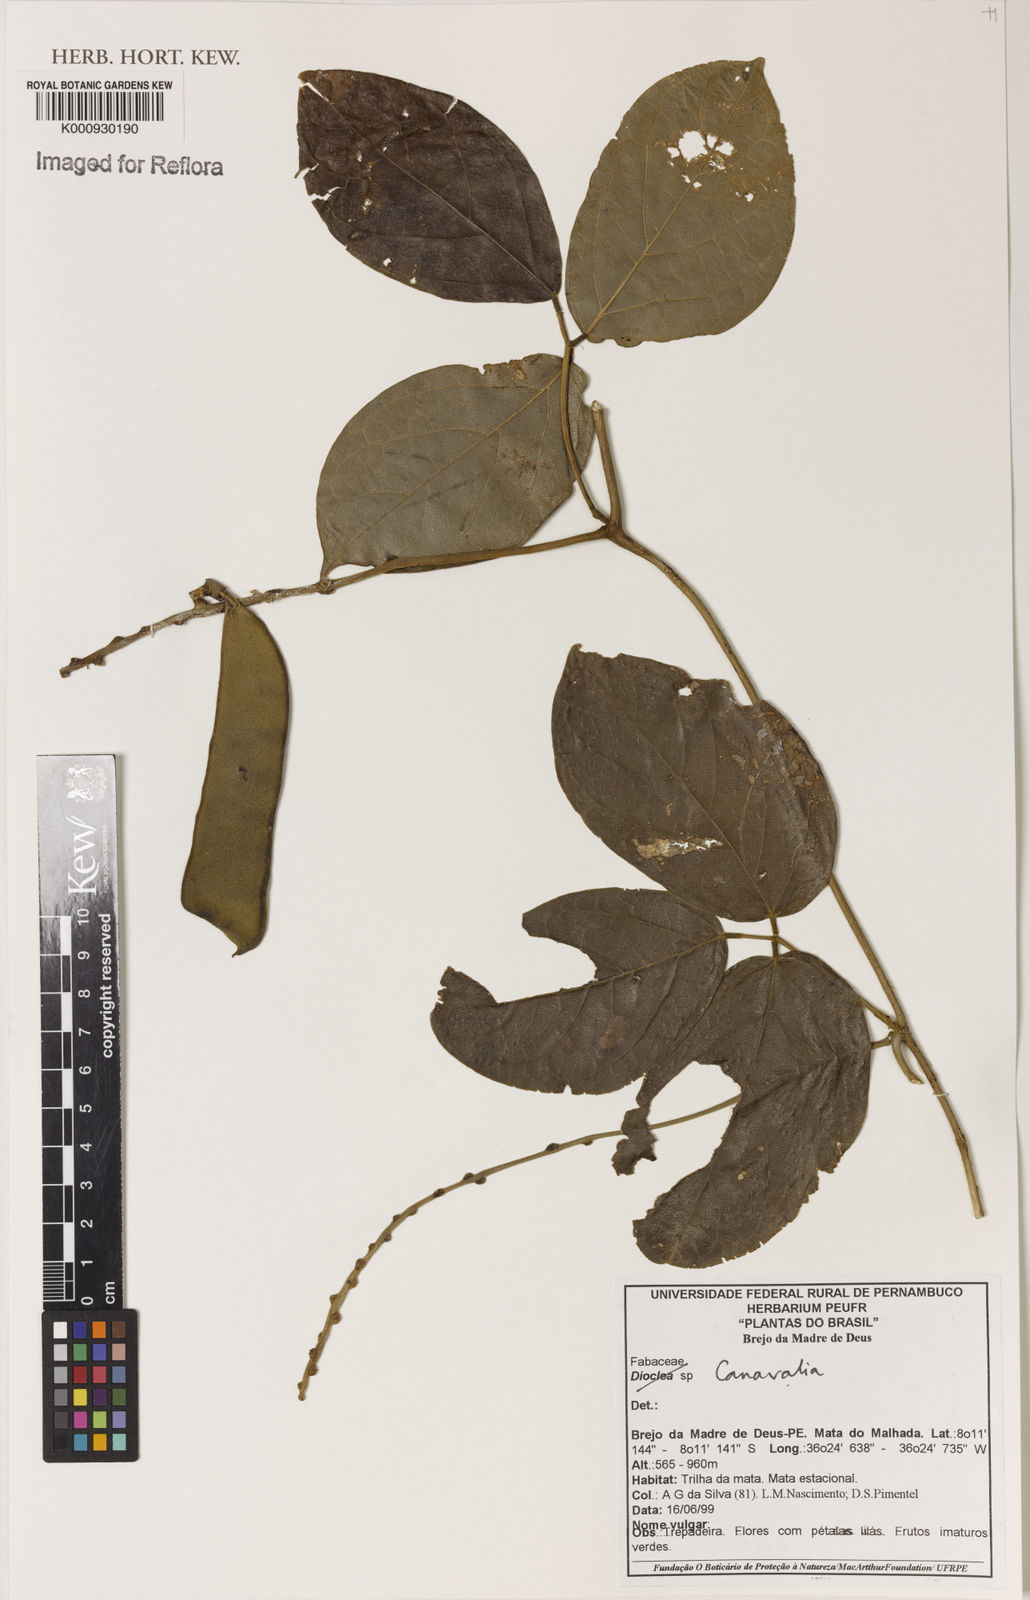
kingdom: Plantae
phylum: Tracheophyta
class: Magnoliopsida
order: Fabales
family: Fabaceae
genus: Canavalia
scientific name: Canavalia
